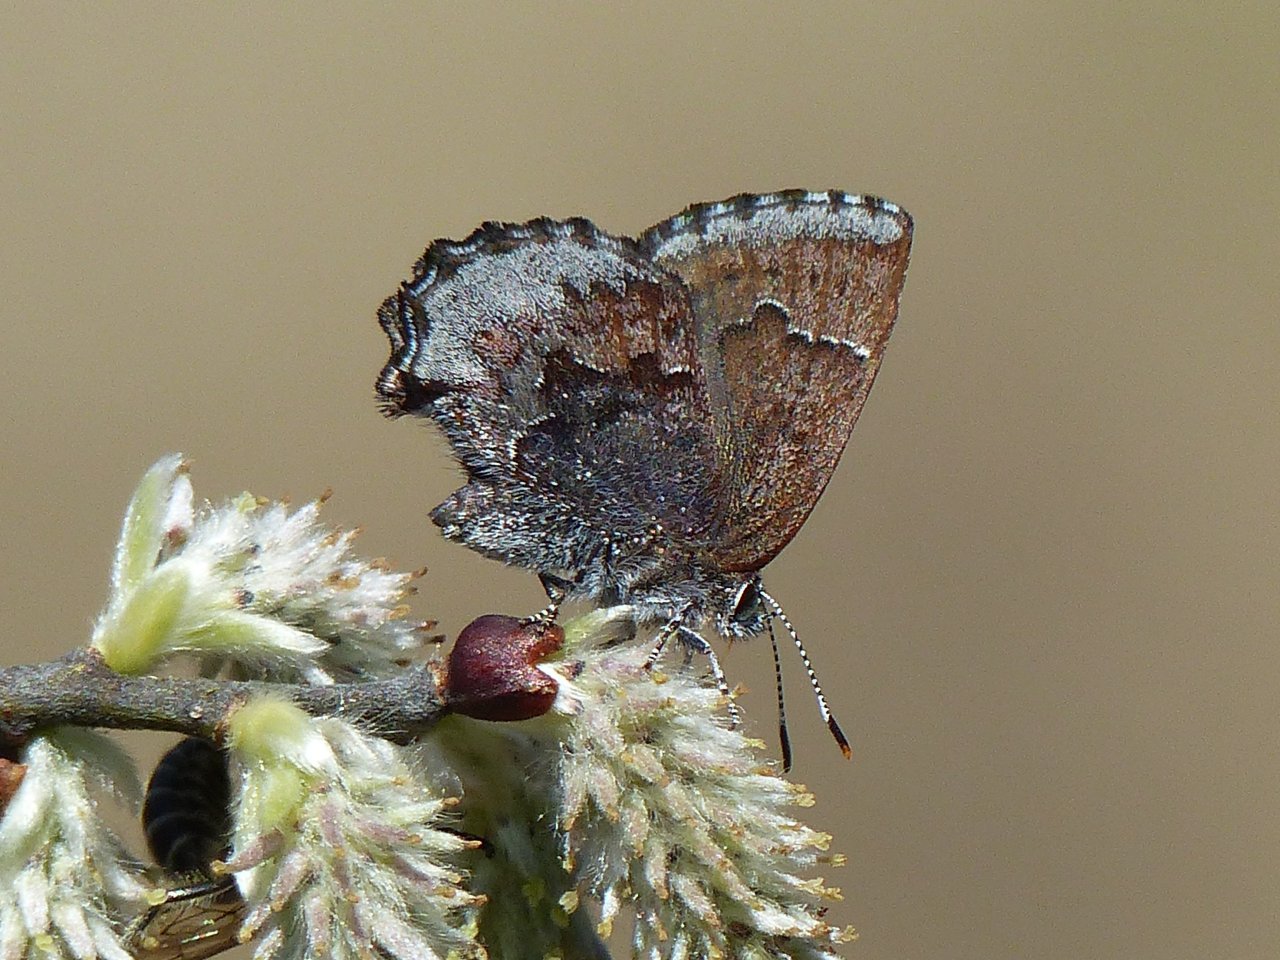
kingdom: Animalia
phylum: Arthropoda
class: Insecta
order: Lepidoptera
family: Lycaenidae
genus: Callophrys
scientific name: Callophrys polios
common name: Hoary Elfin
